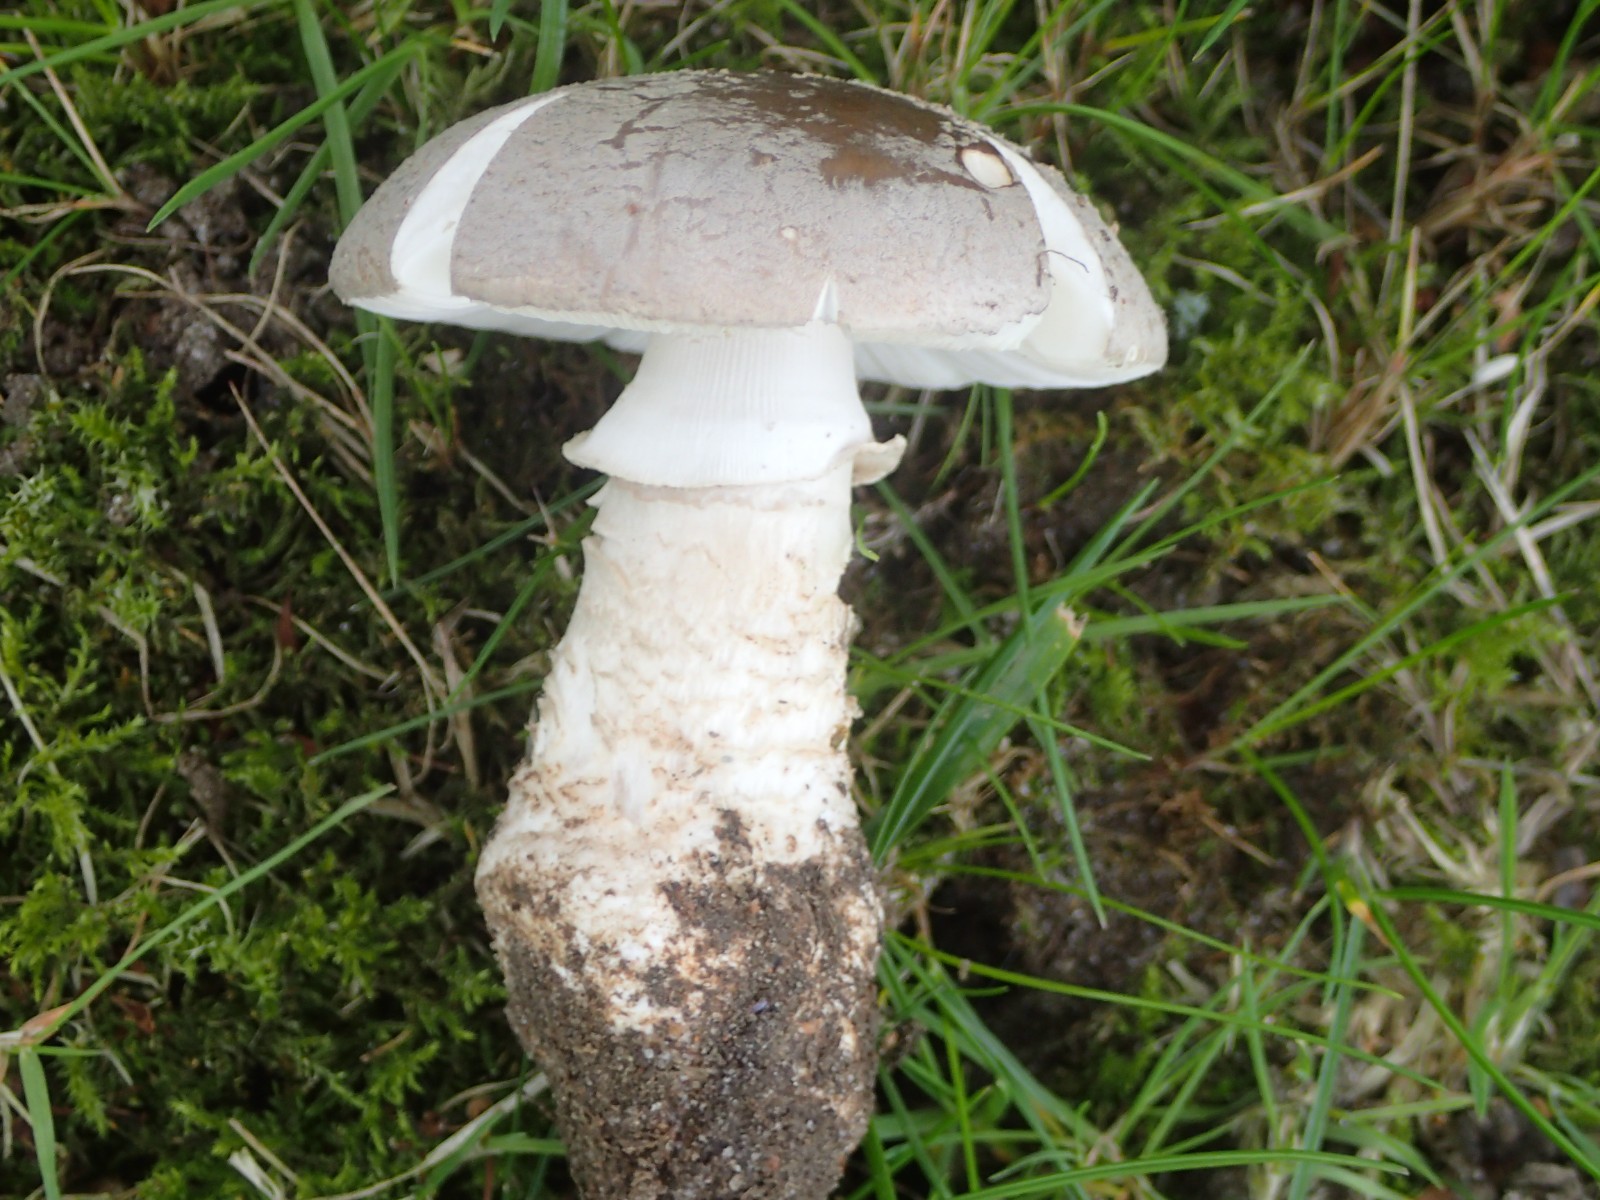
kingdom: Fungi
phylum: Basidiomycota
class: Agaricomycetes
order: Agaricales
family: Amanitaceae
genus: Amanita
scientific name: Amanita
